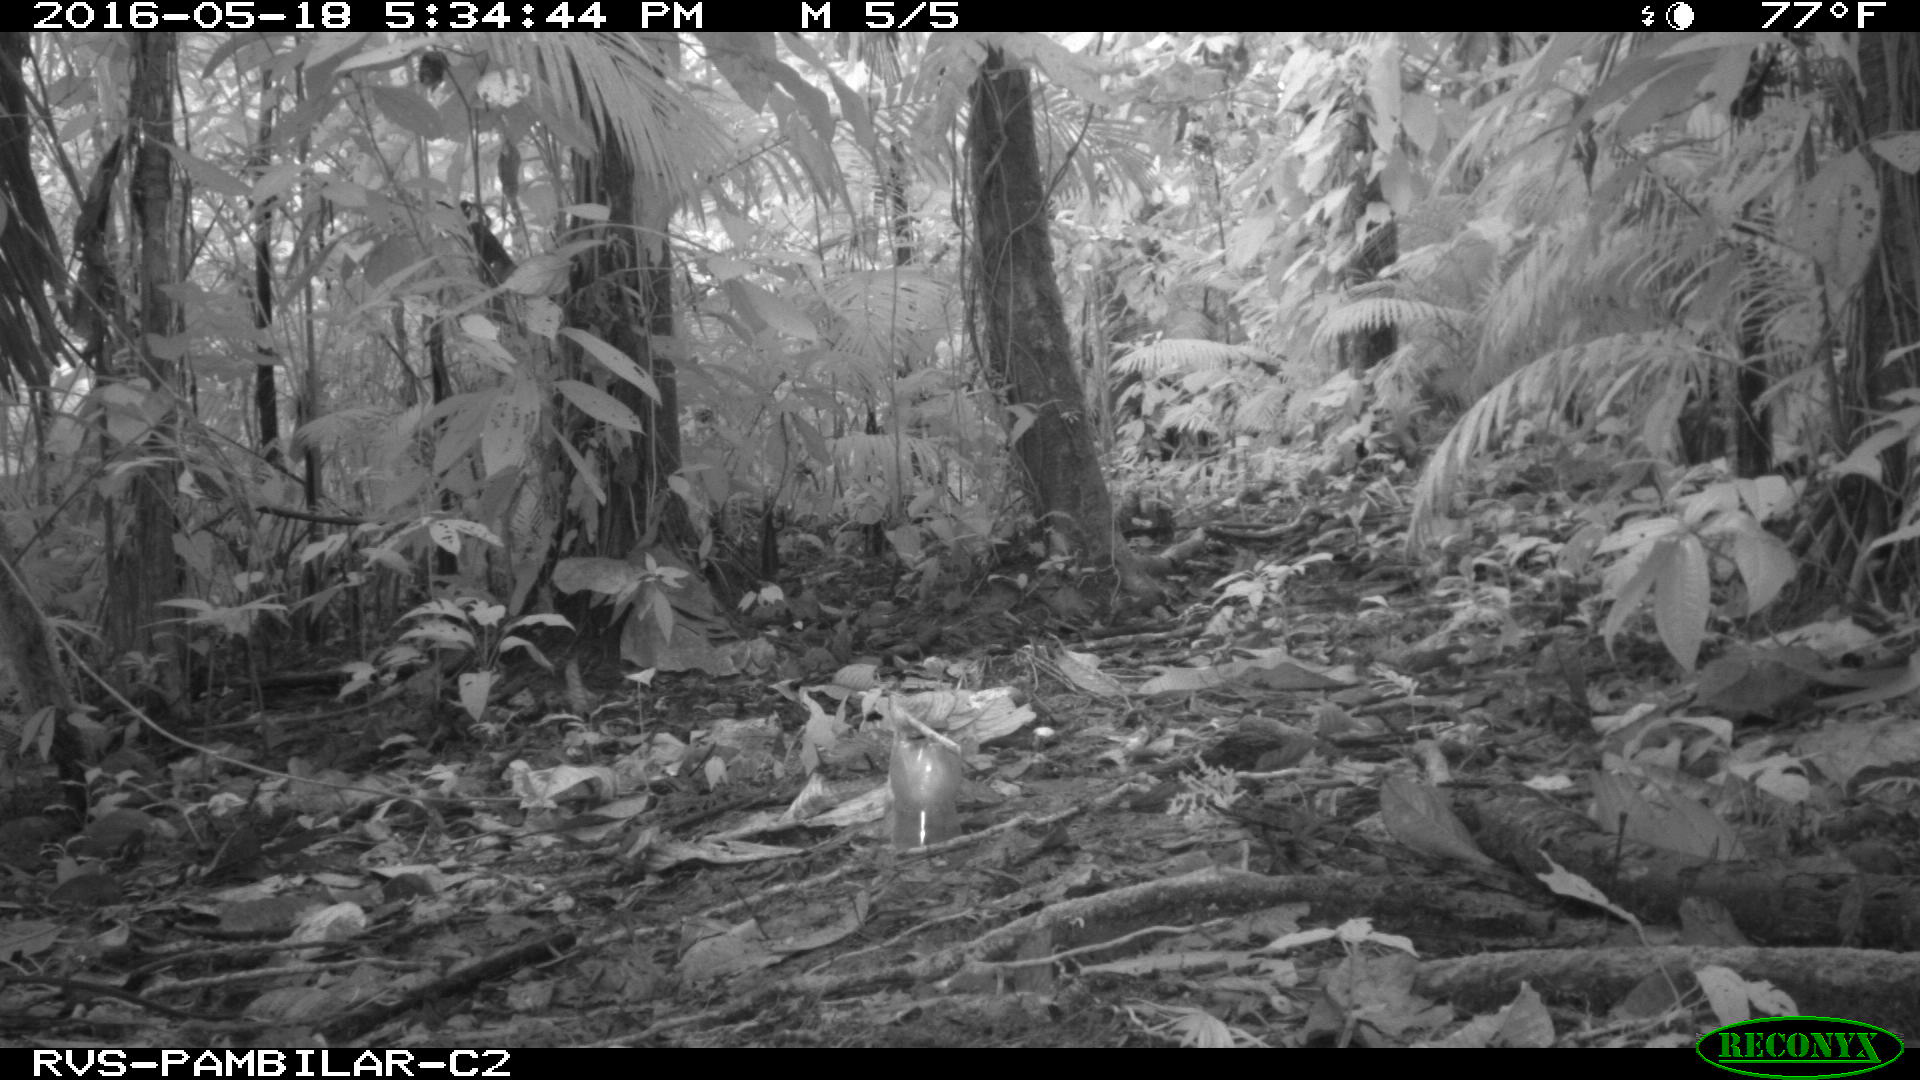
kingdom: Animalia
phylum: Chordata
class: Mammalia
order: Rodentia
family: Dasyproctidae
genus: Dasyprocta
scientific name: Dasyprocta punctata
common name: Central american agouti
